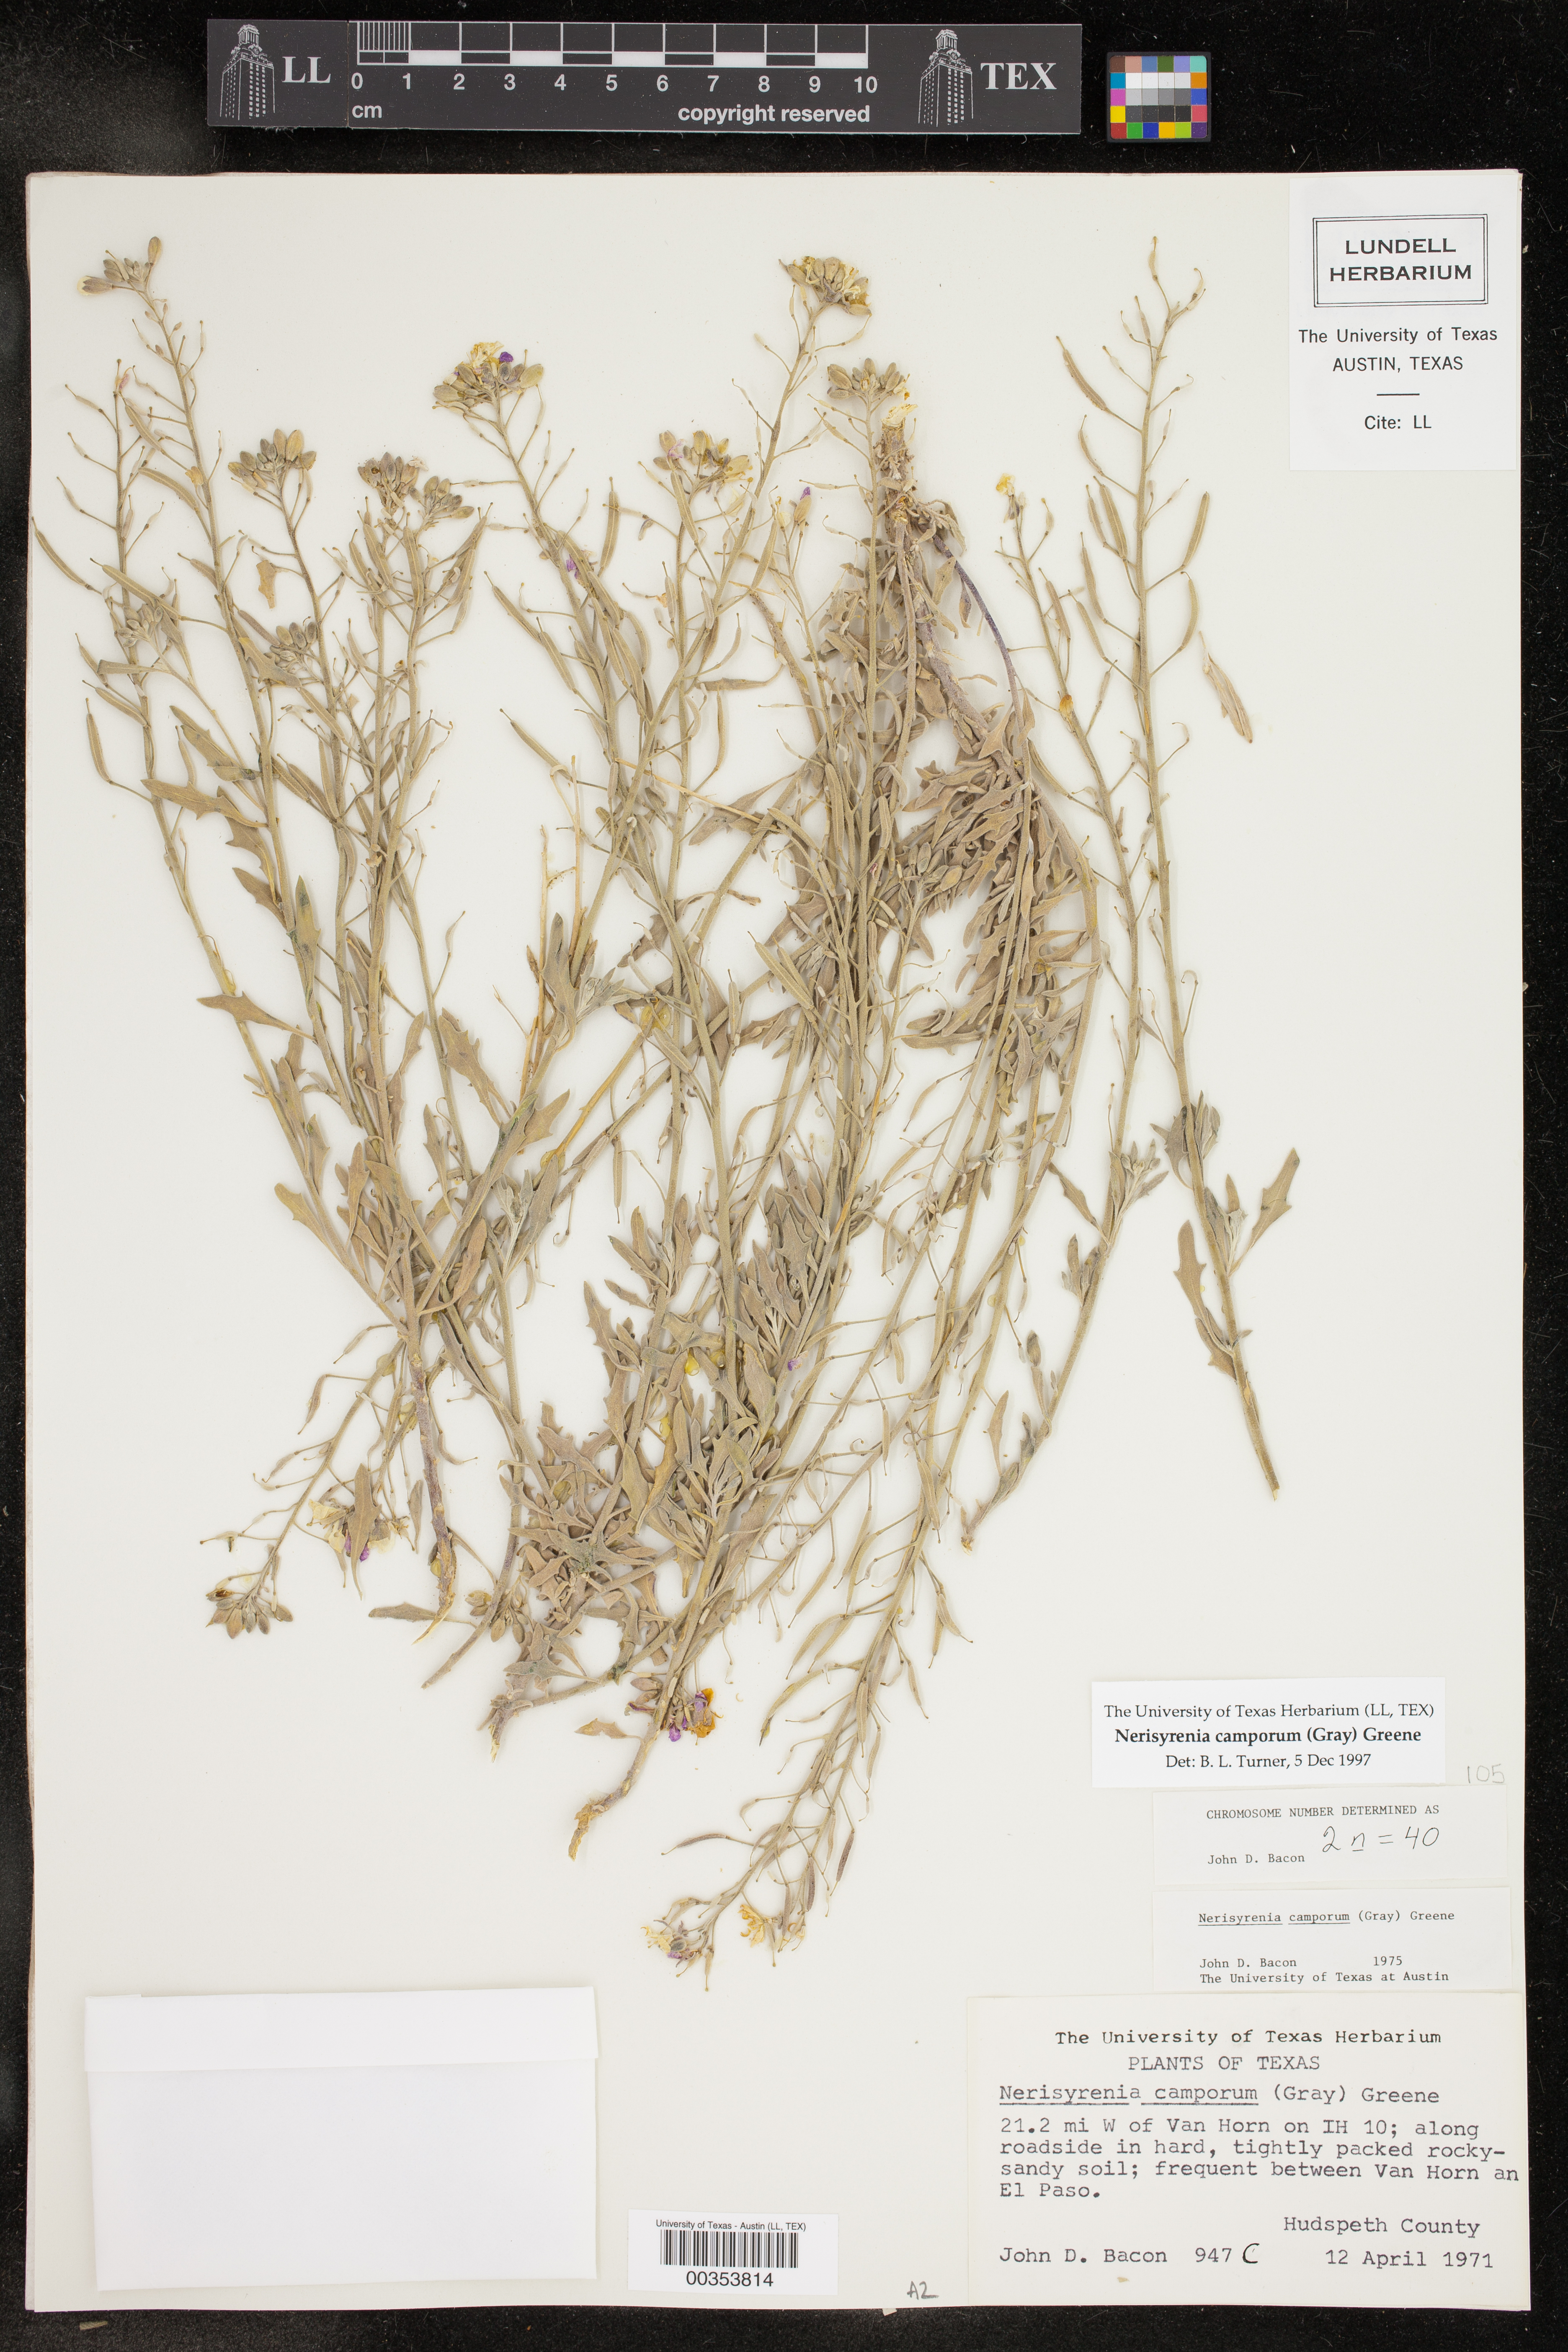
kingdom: Plantae
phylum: Tracheophyta
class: Magnoliopsida
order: Brassicales
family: Brassicaceae
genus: Nerisyrenia
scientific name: Nerisyrenia camporum
